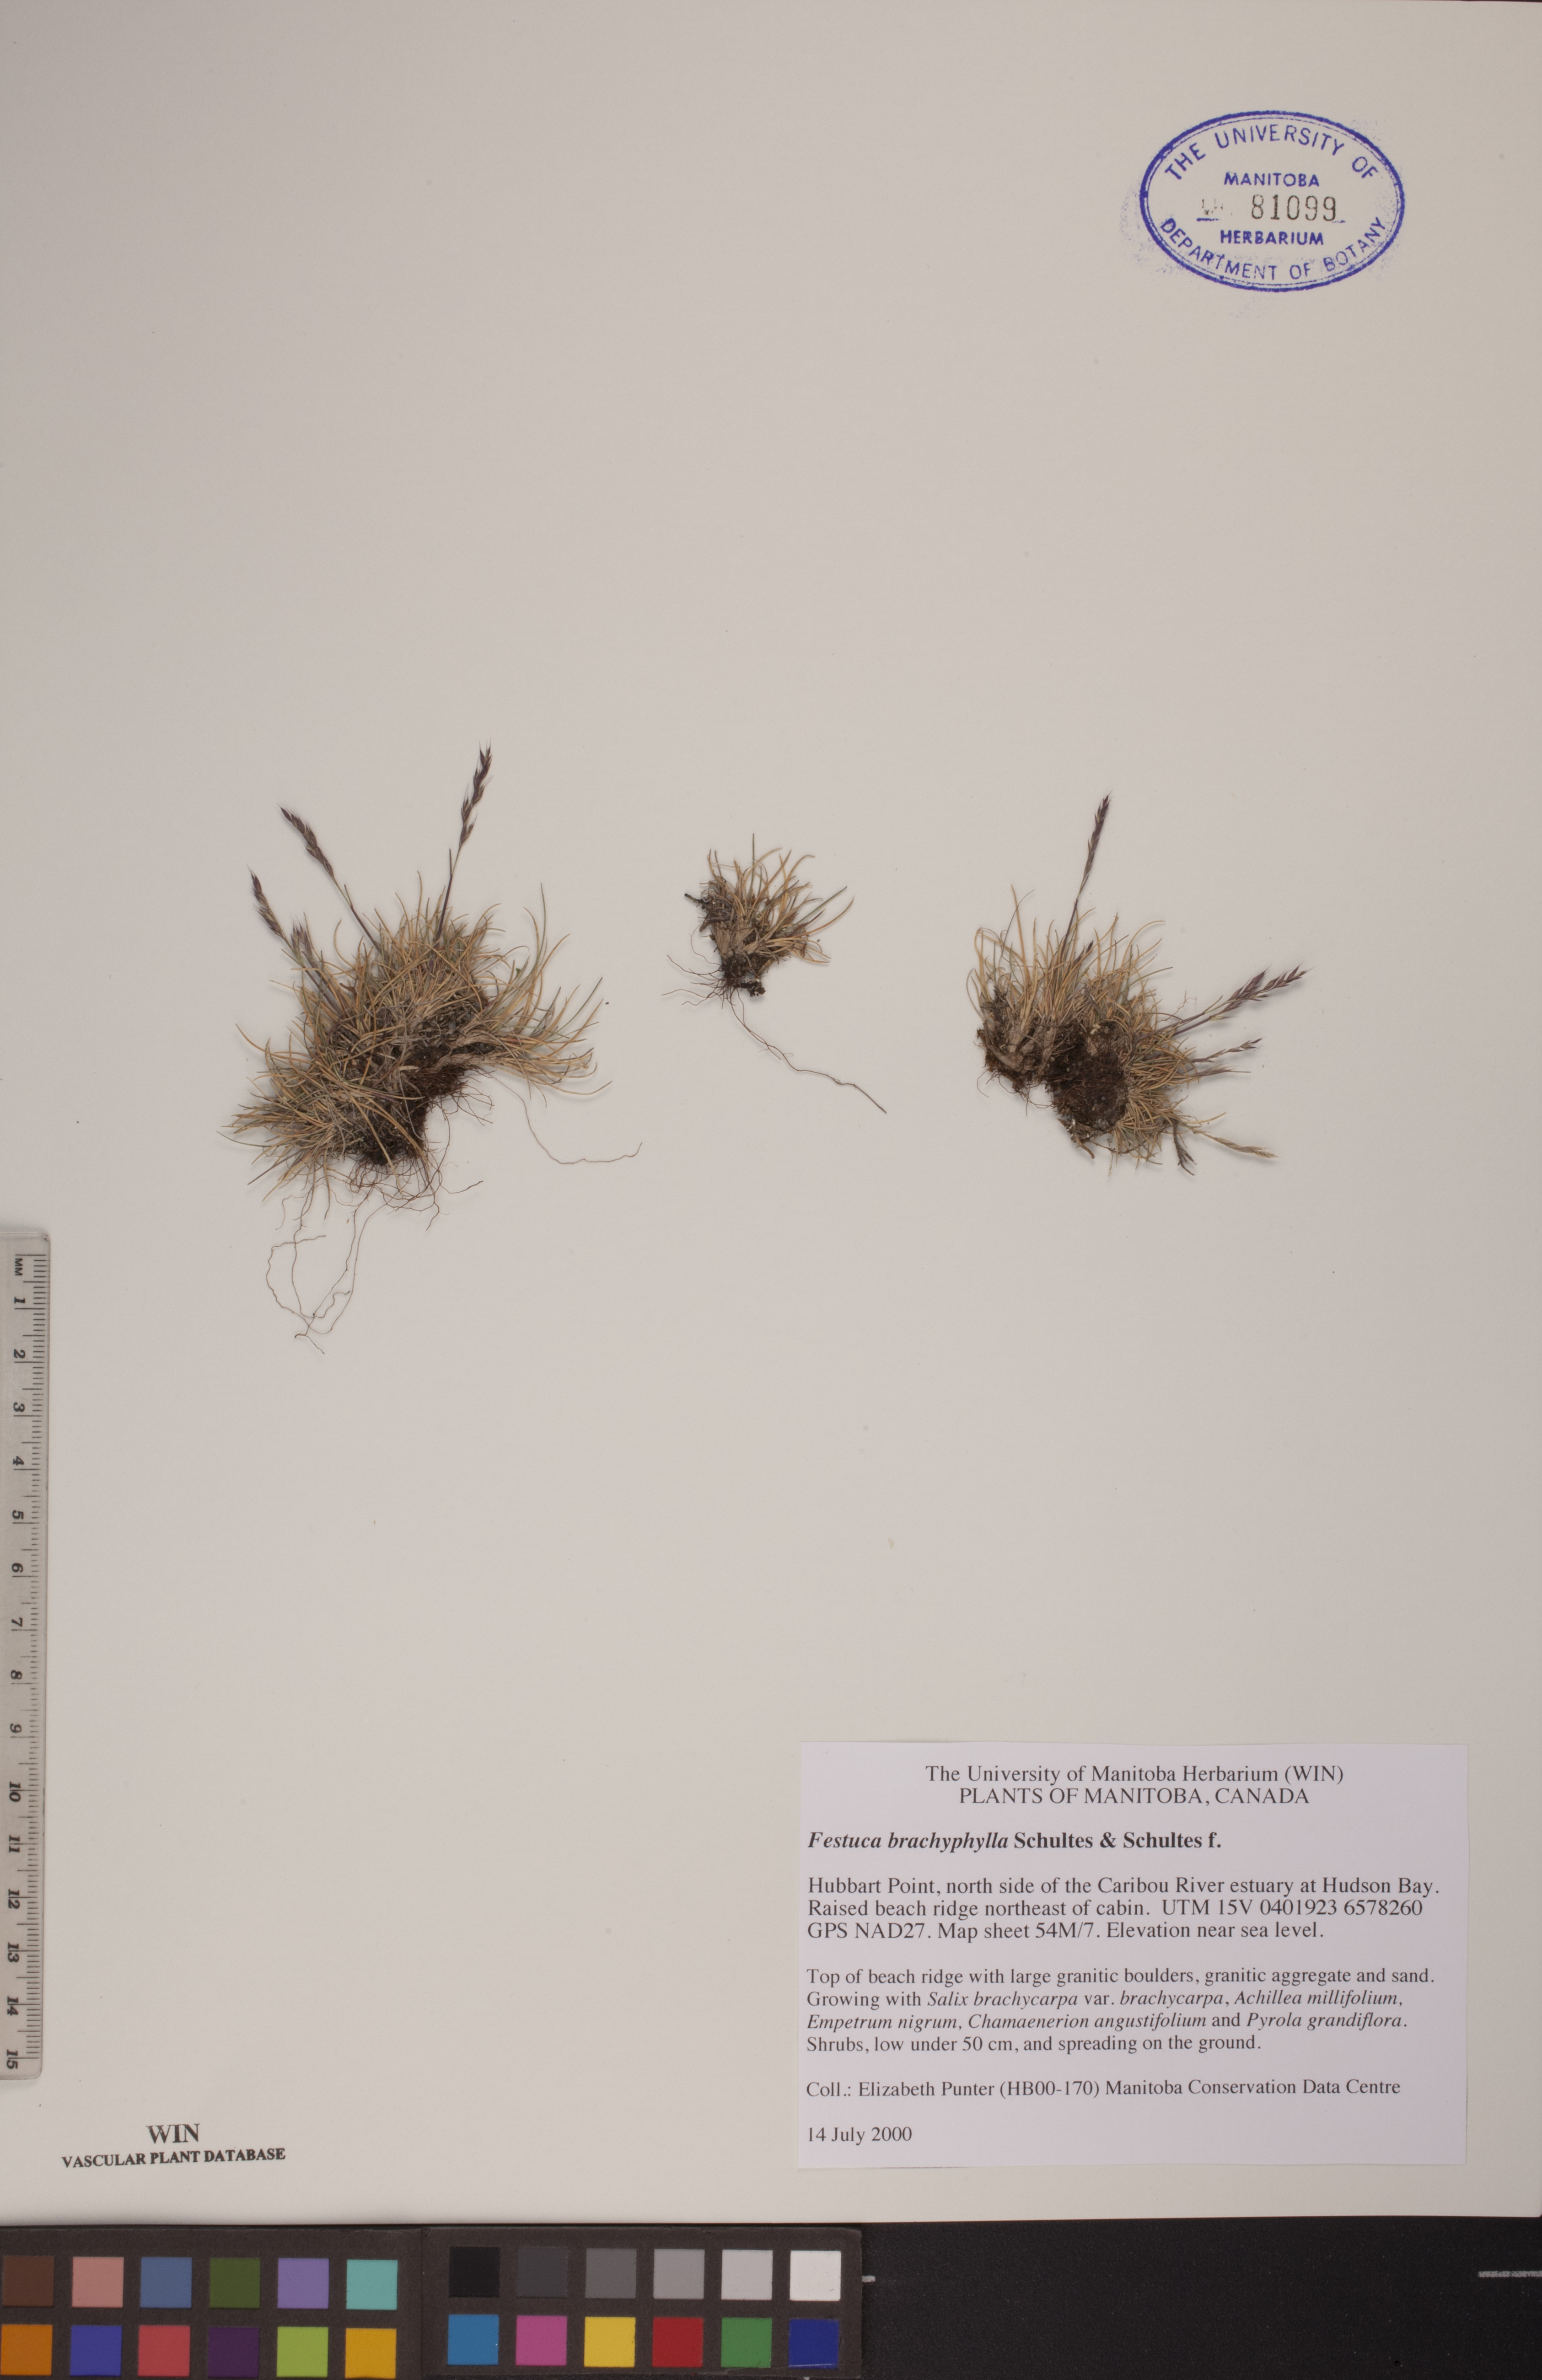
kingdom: Plantae
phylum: Tracheophyta
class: Liliopsida
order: Poales
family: Poaceae
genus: Festuca
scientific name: Festuca brachyphylla
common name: Alpine fescue
